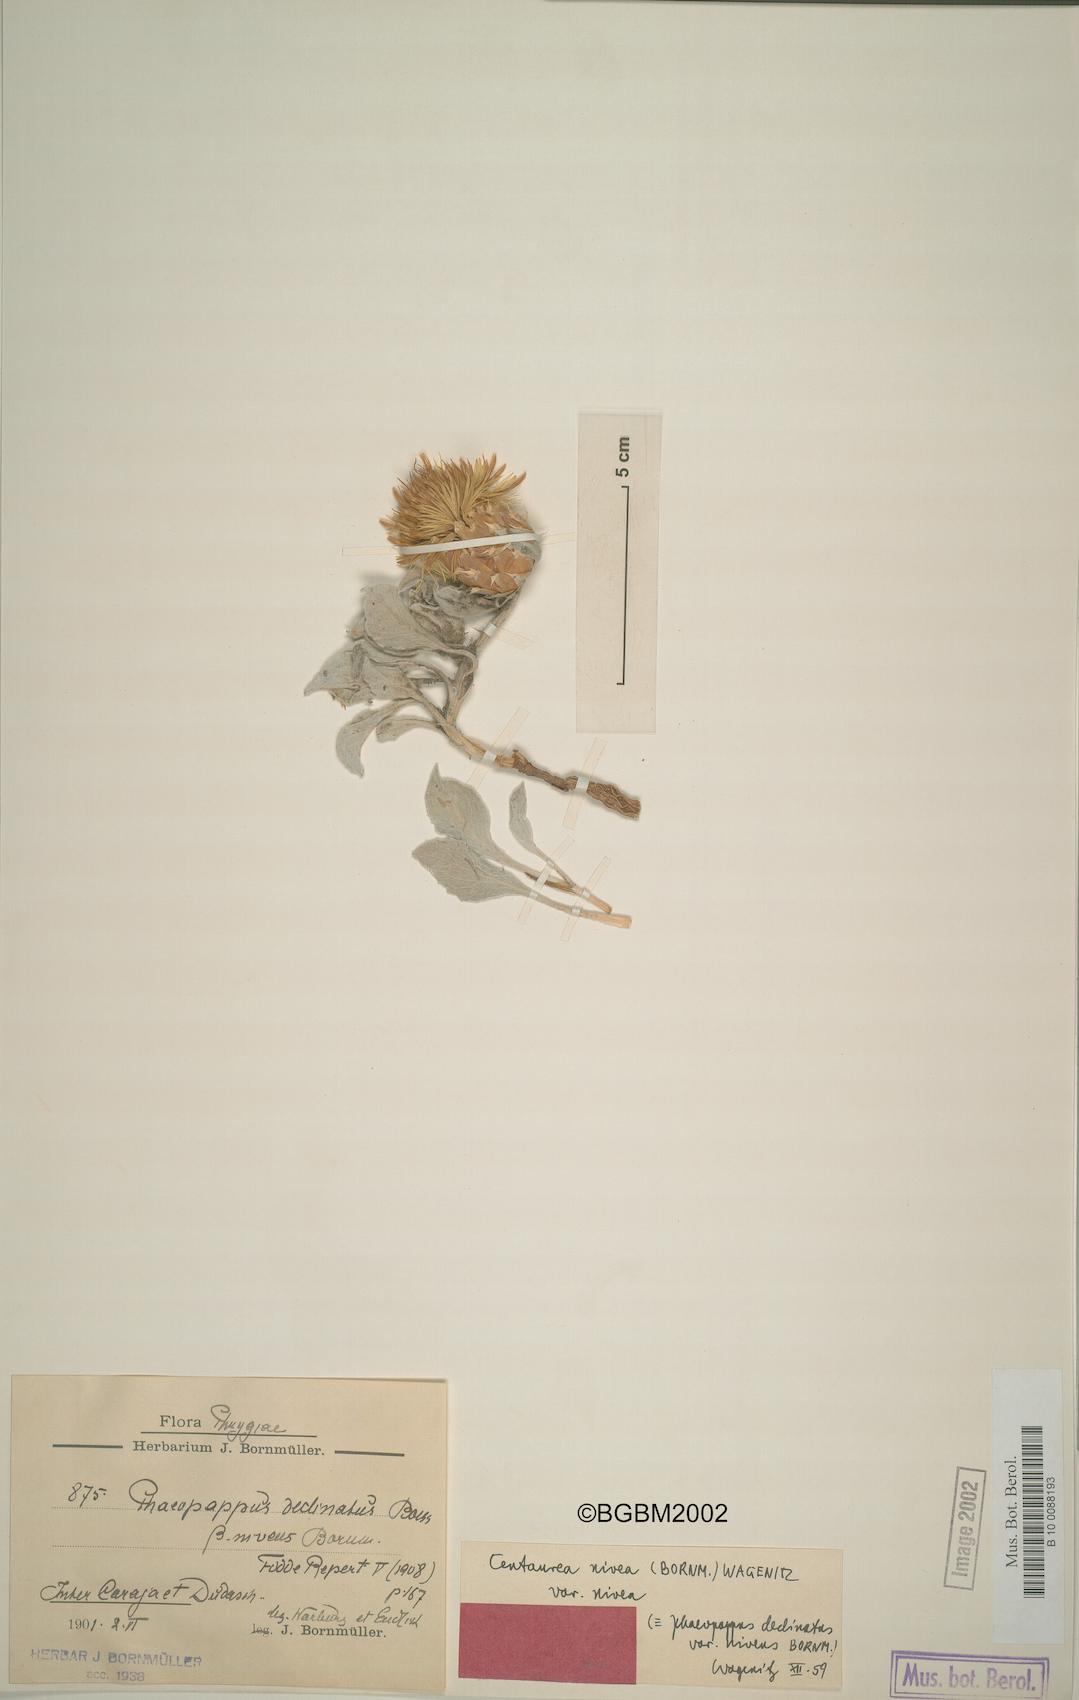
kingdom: Plantae
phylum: Tracheophyta
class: Magnoliopsida
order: Asterales
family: Asteraceae
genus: Centaurea
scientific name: Centaurea nivea
